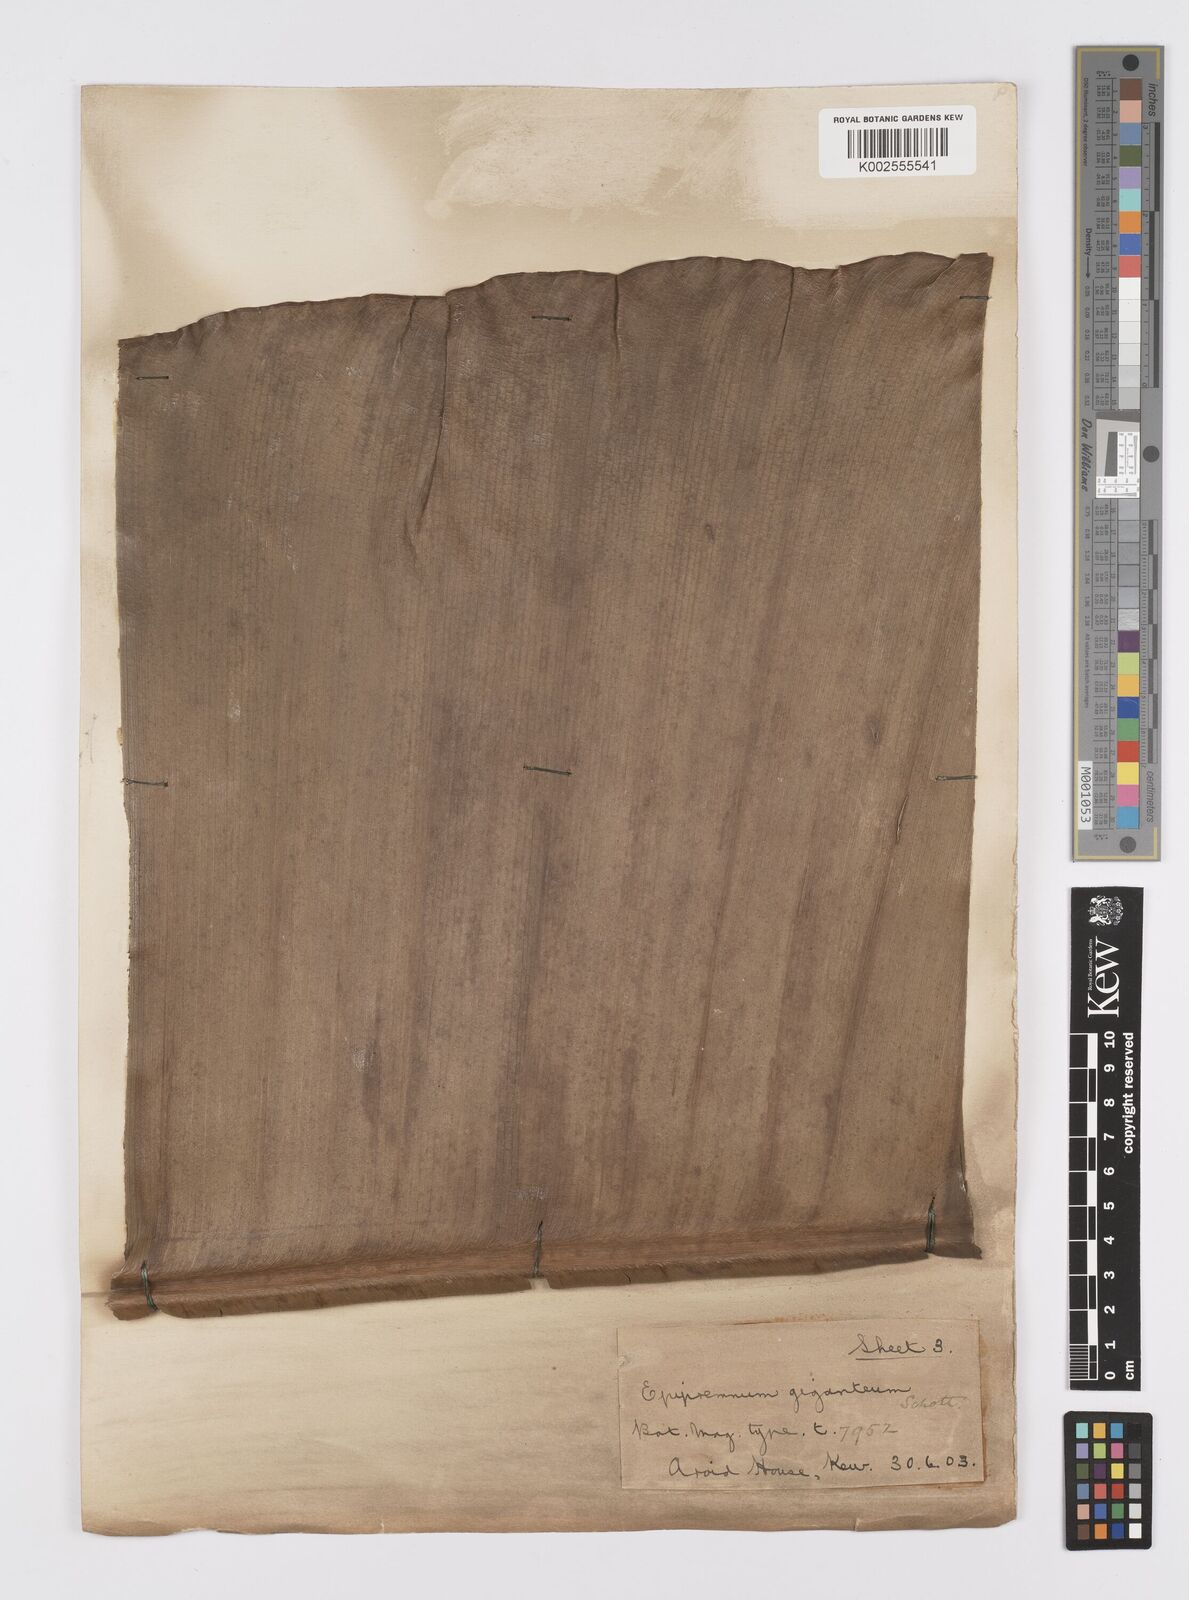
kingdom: Plantae
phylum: Tracheophyta
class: Liliopsida
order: Alismatales
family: Araceae
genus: Epipremnum
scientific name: Epipremnum giganteum
